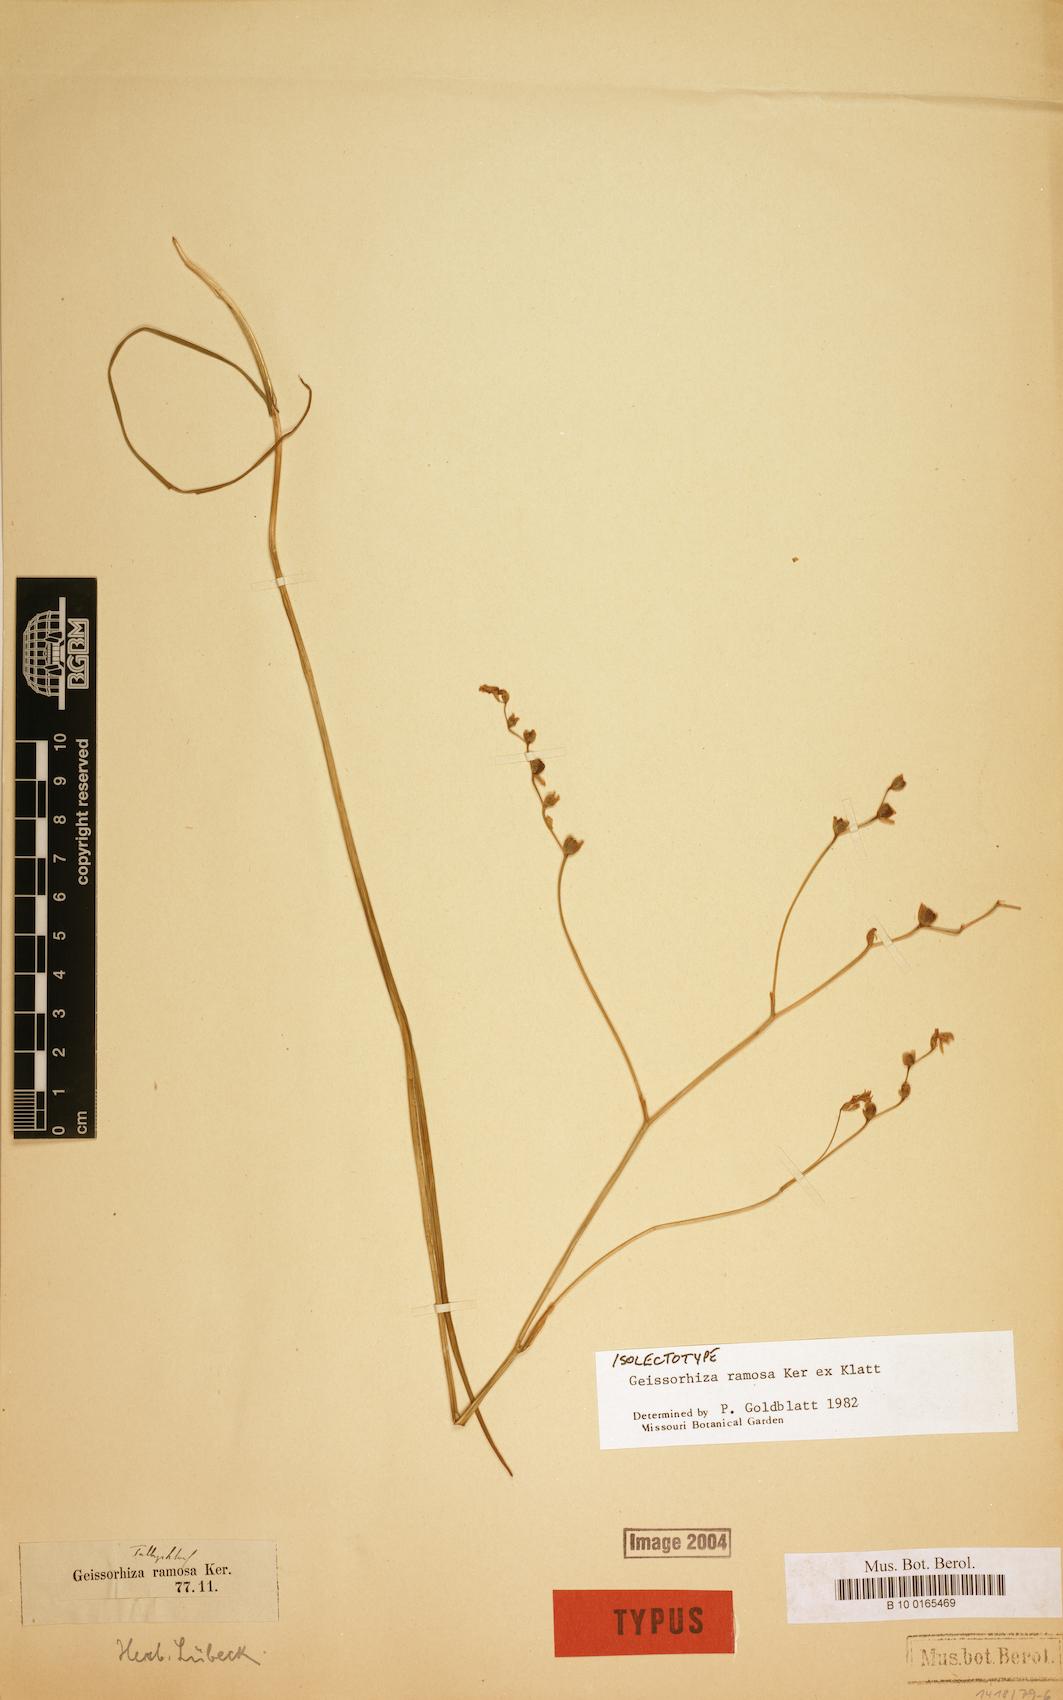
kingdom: Plantae
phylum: Tracheophyta
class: Liliopsida
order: Asparagales
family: Iridaceae
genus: Geissorhiza
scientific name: Geissorhiza ramosa
